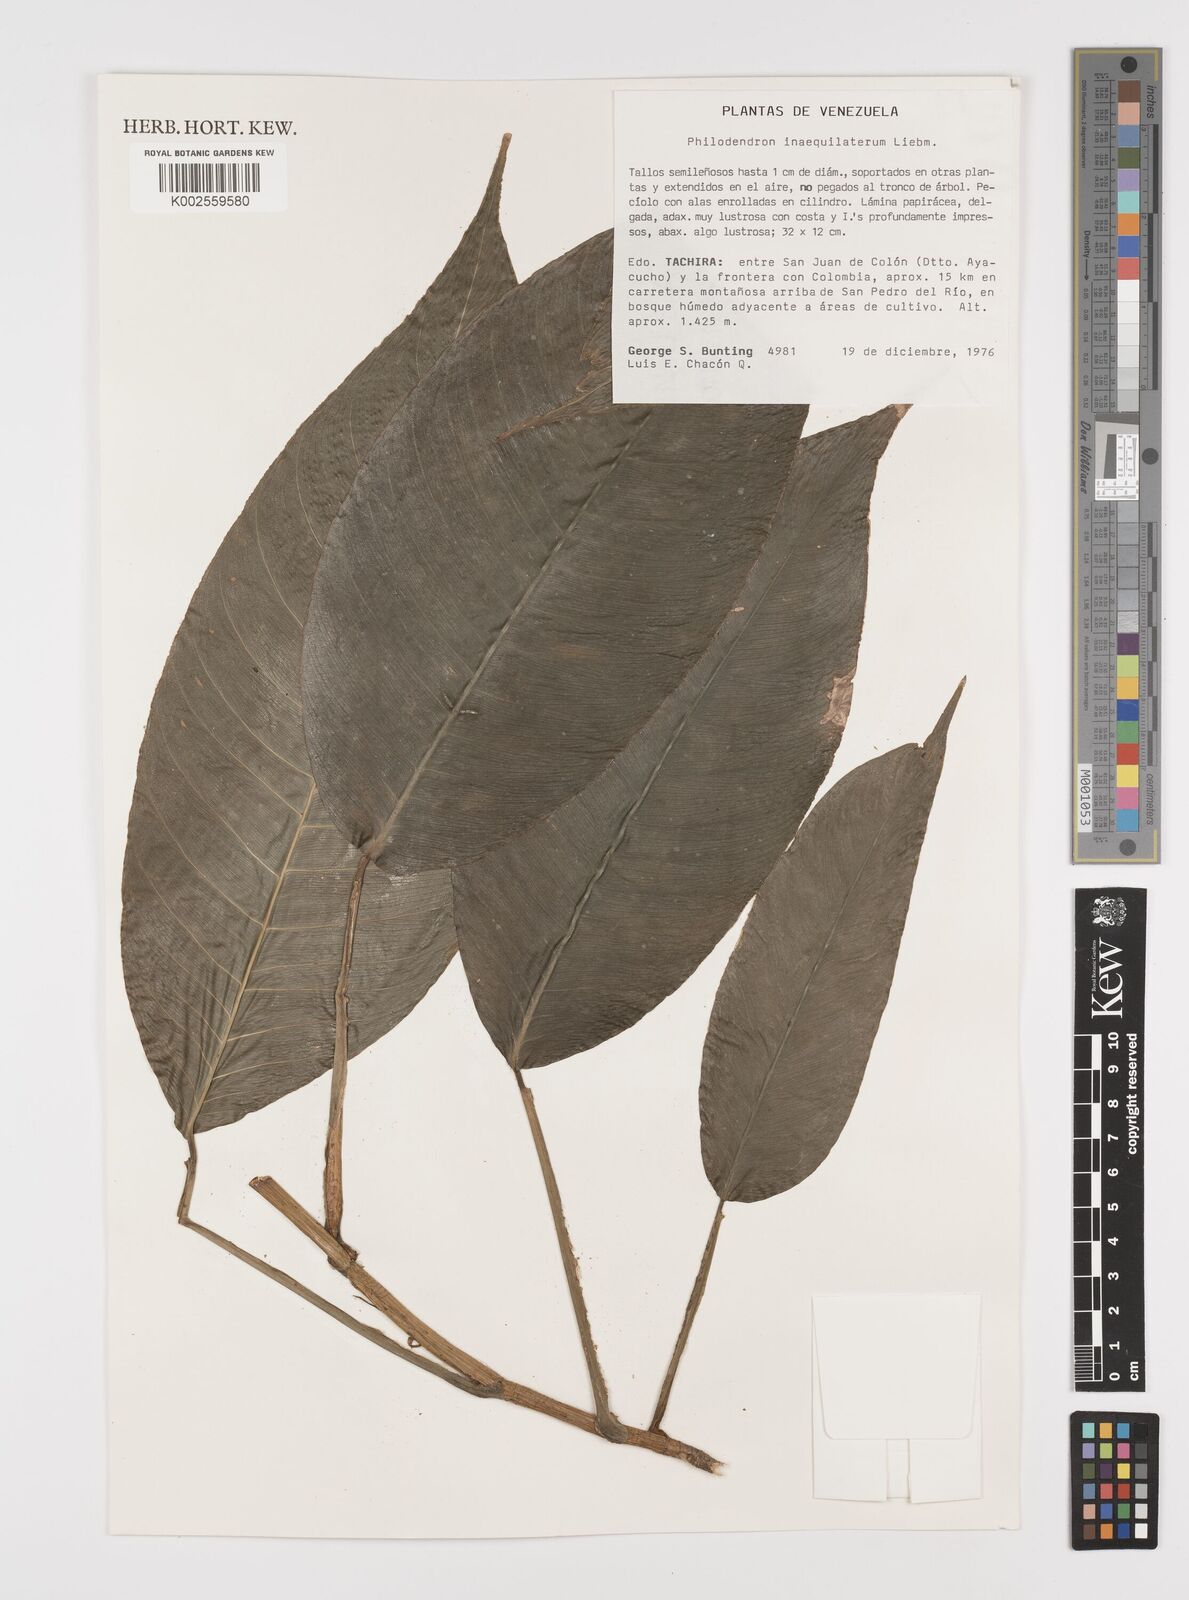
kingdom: Plantae
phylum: Tracheophyta
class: Liliopsida
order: Alismatales
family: Araceae
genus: Philodendron
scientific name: Philodendron inaequilaterum
